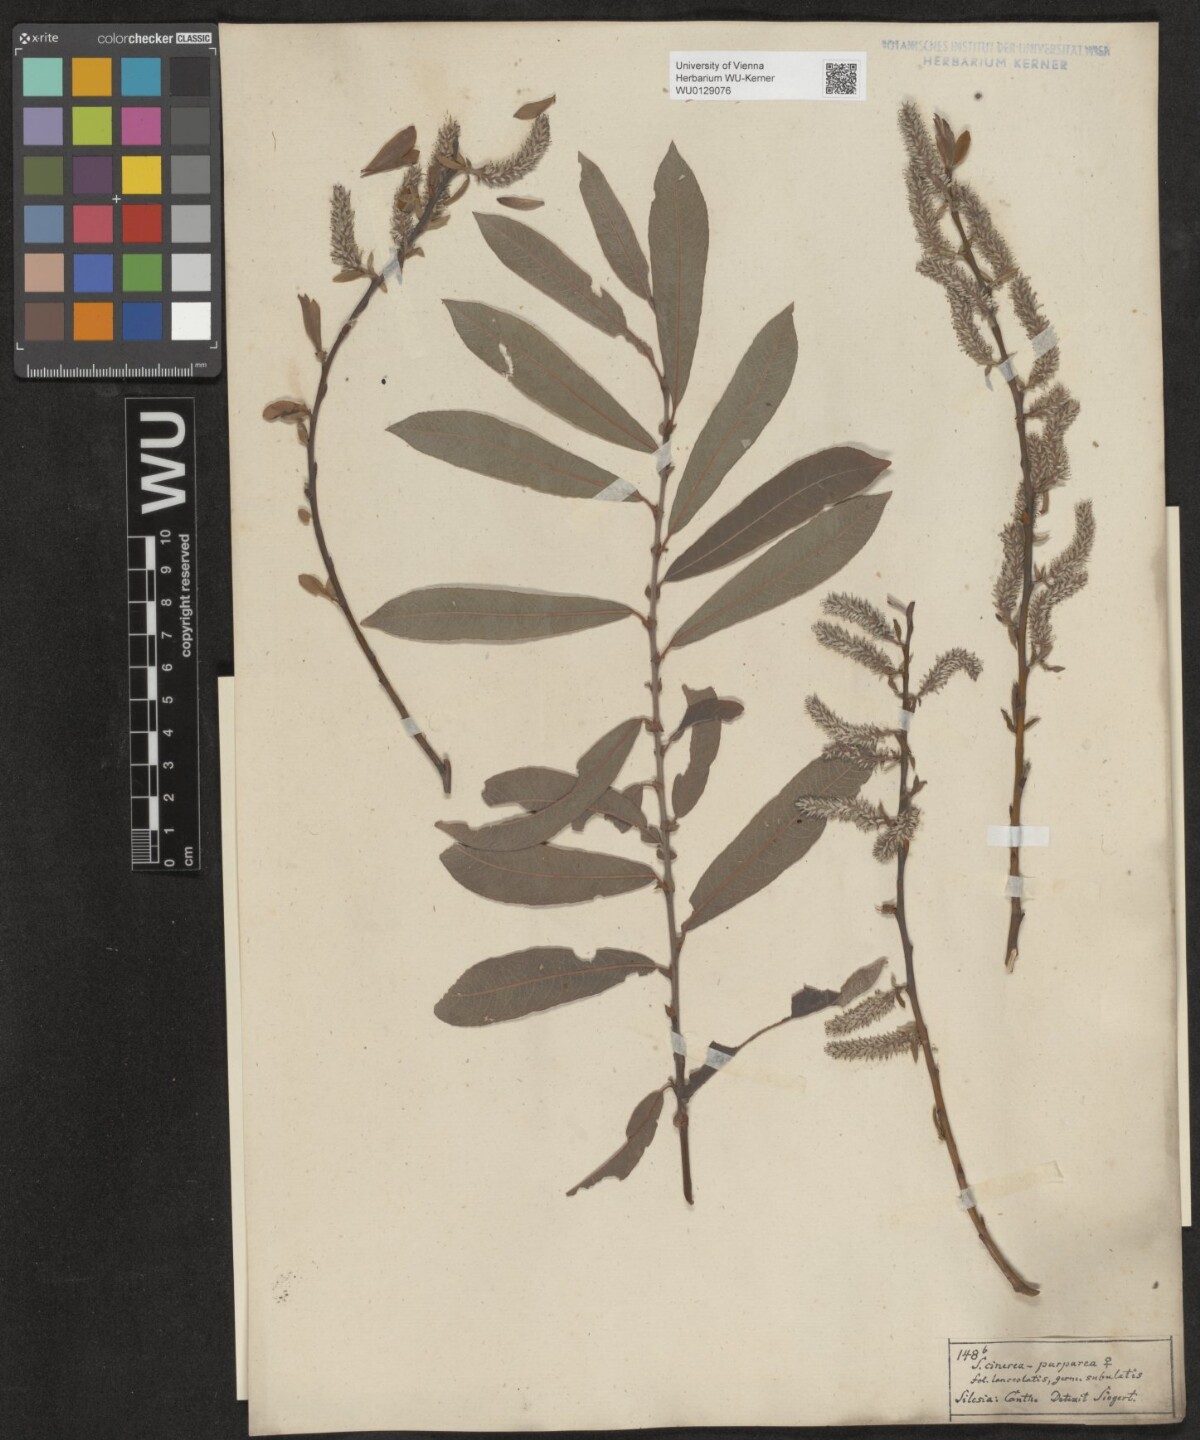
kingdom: Plantae
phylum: Tracheophyta
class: Magnoliopsida
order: Malpighiales
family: Salicaceae
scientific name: Salicaceae
